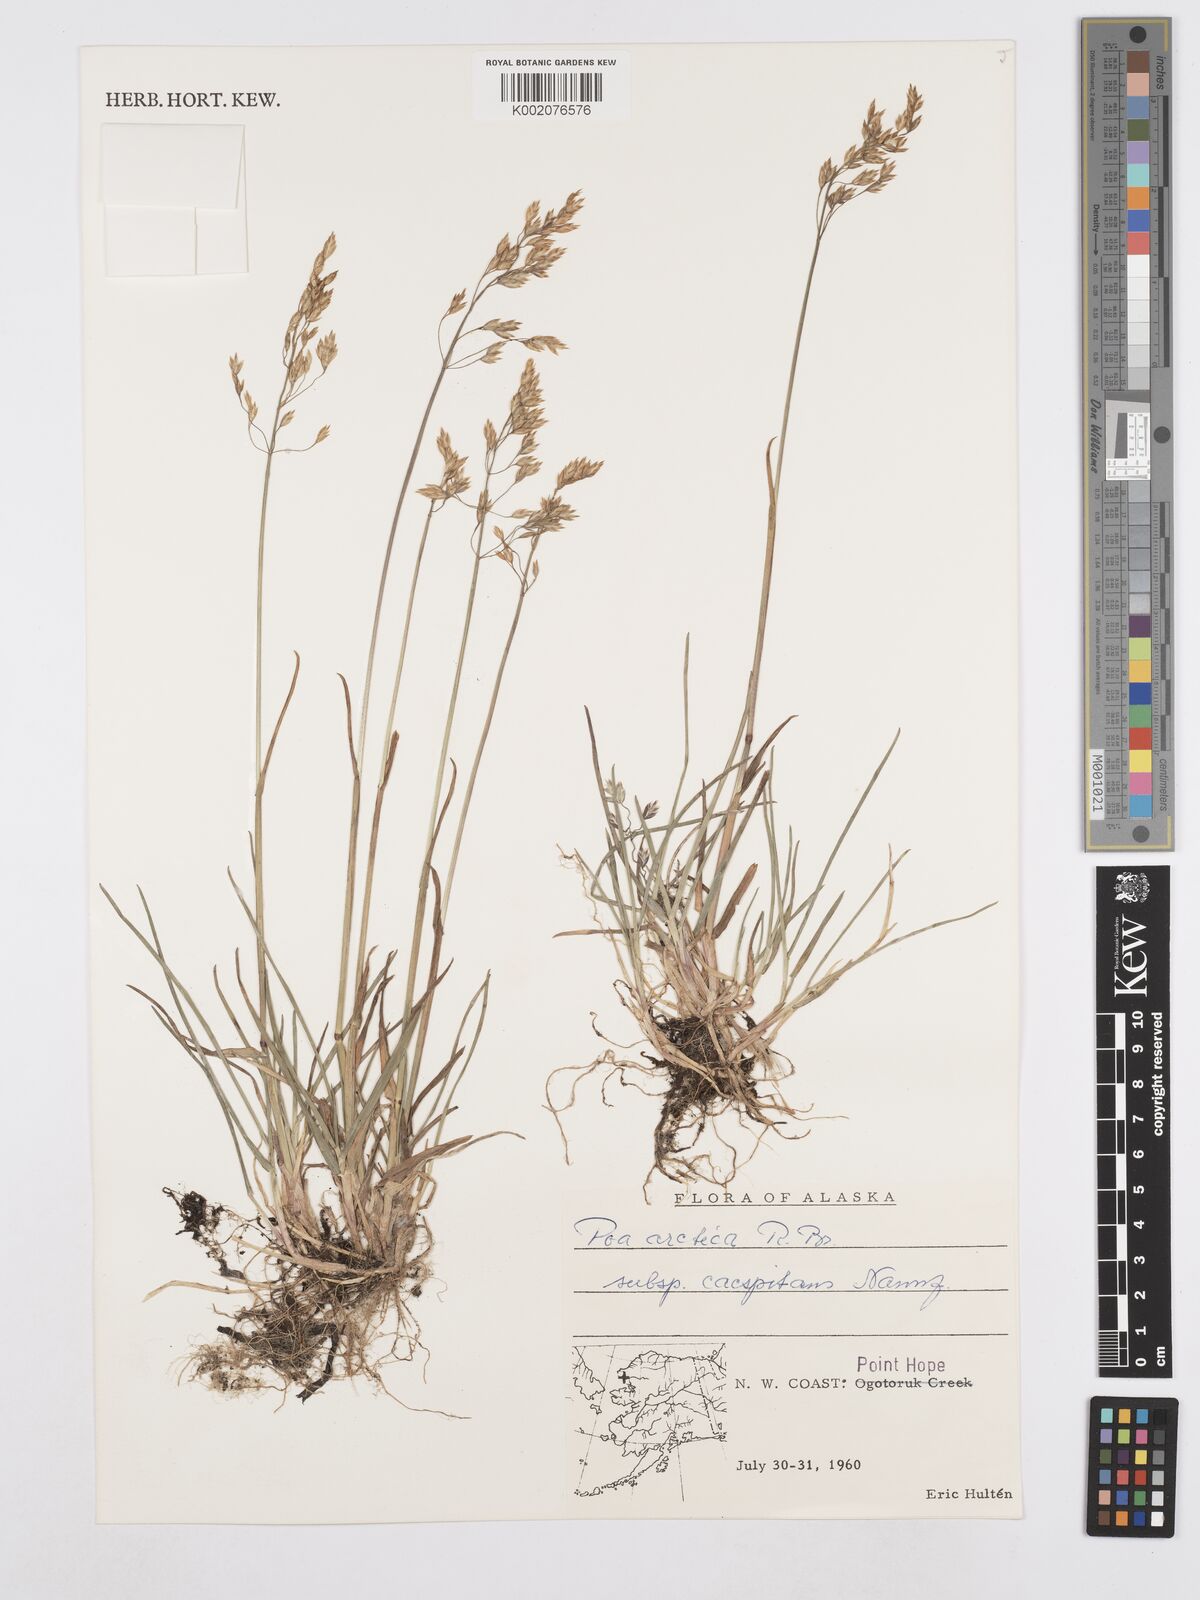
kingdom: Plantae
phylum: Tracheophyta
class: Liliopsida
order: Poales
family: Poaceae
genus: Poa
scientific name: Poa tolmatchewii
